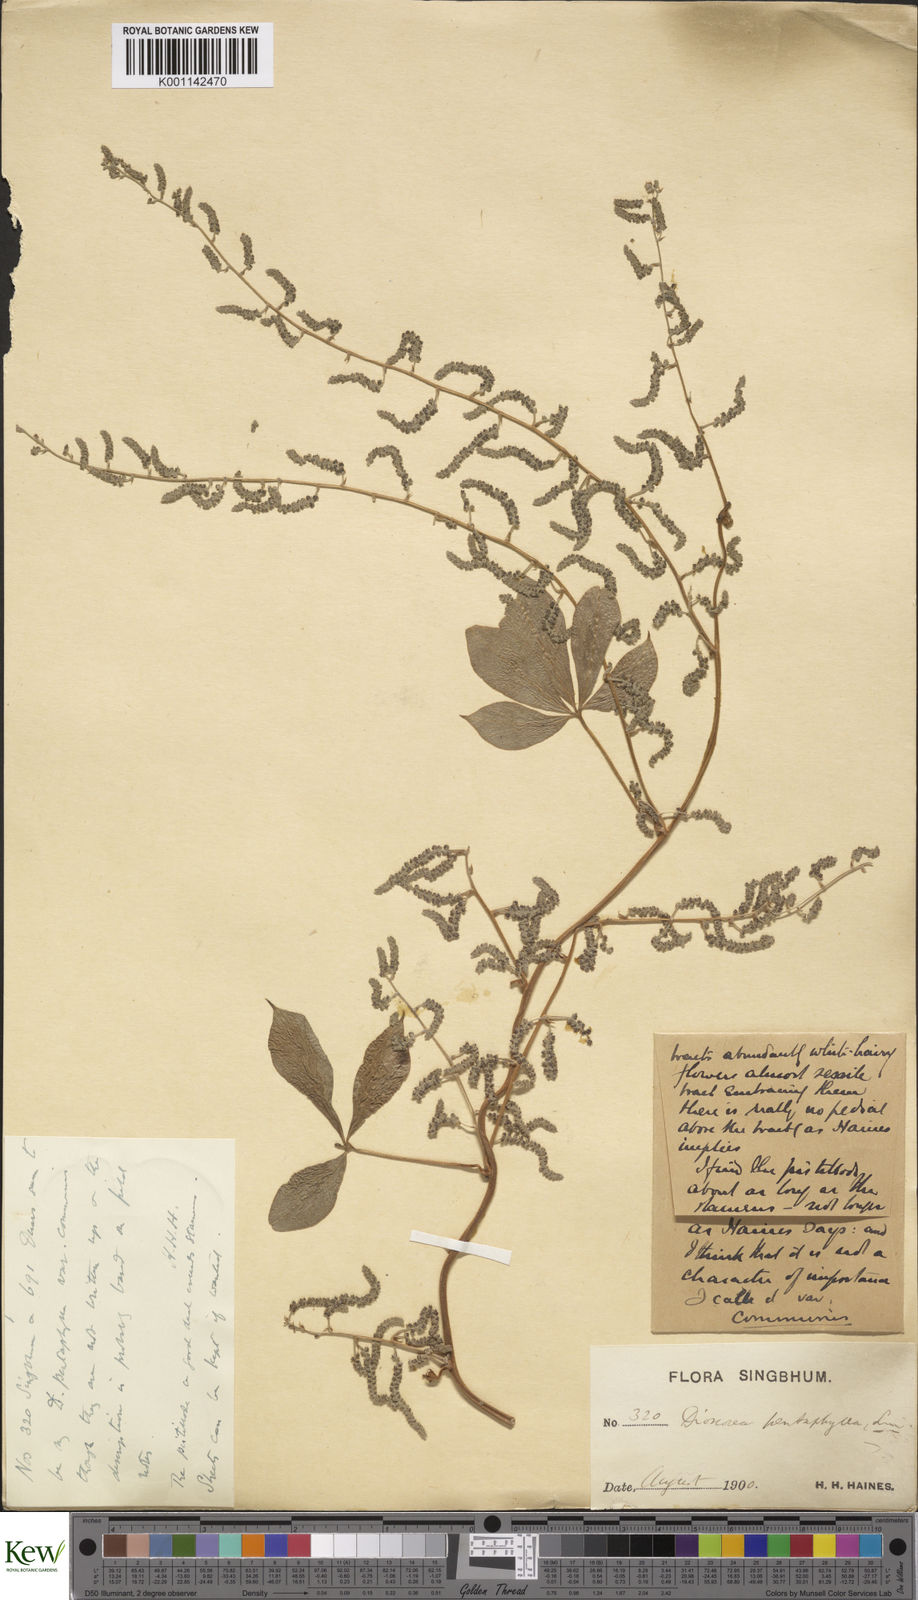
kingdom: Plantae
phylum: Tracheophyta
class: Liliopsida
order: Dioscoreales
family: Dioscoreaceae
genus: Dioscorea
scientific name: Dioscorea pentaphylla
